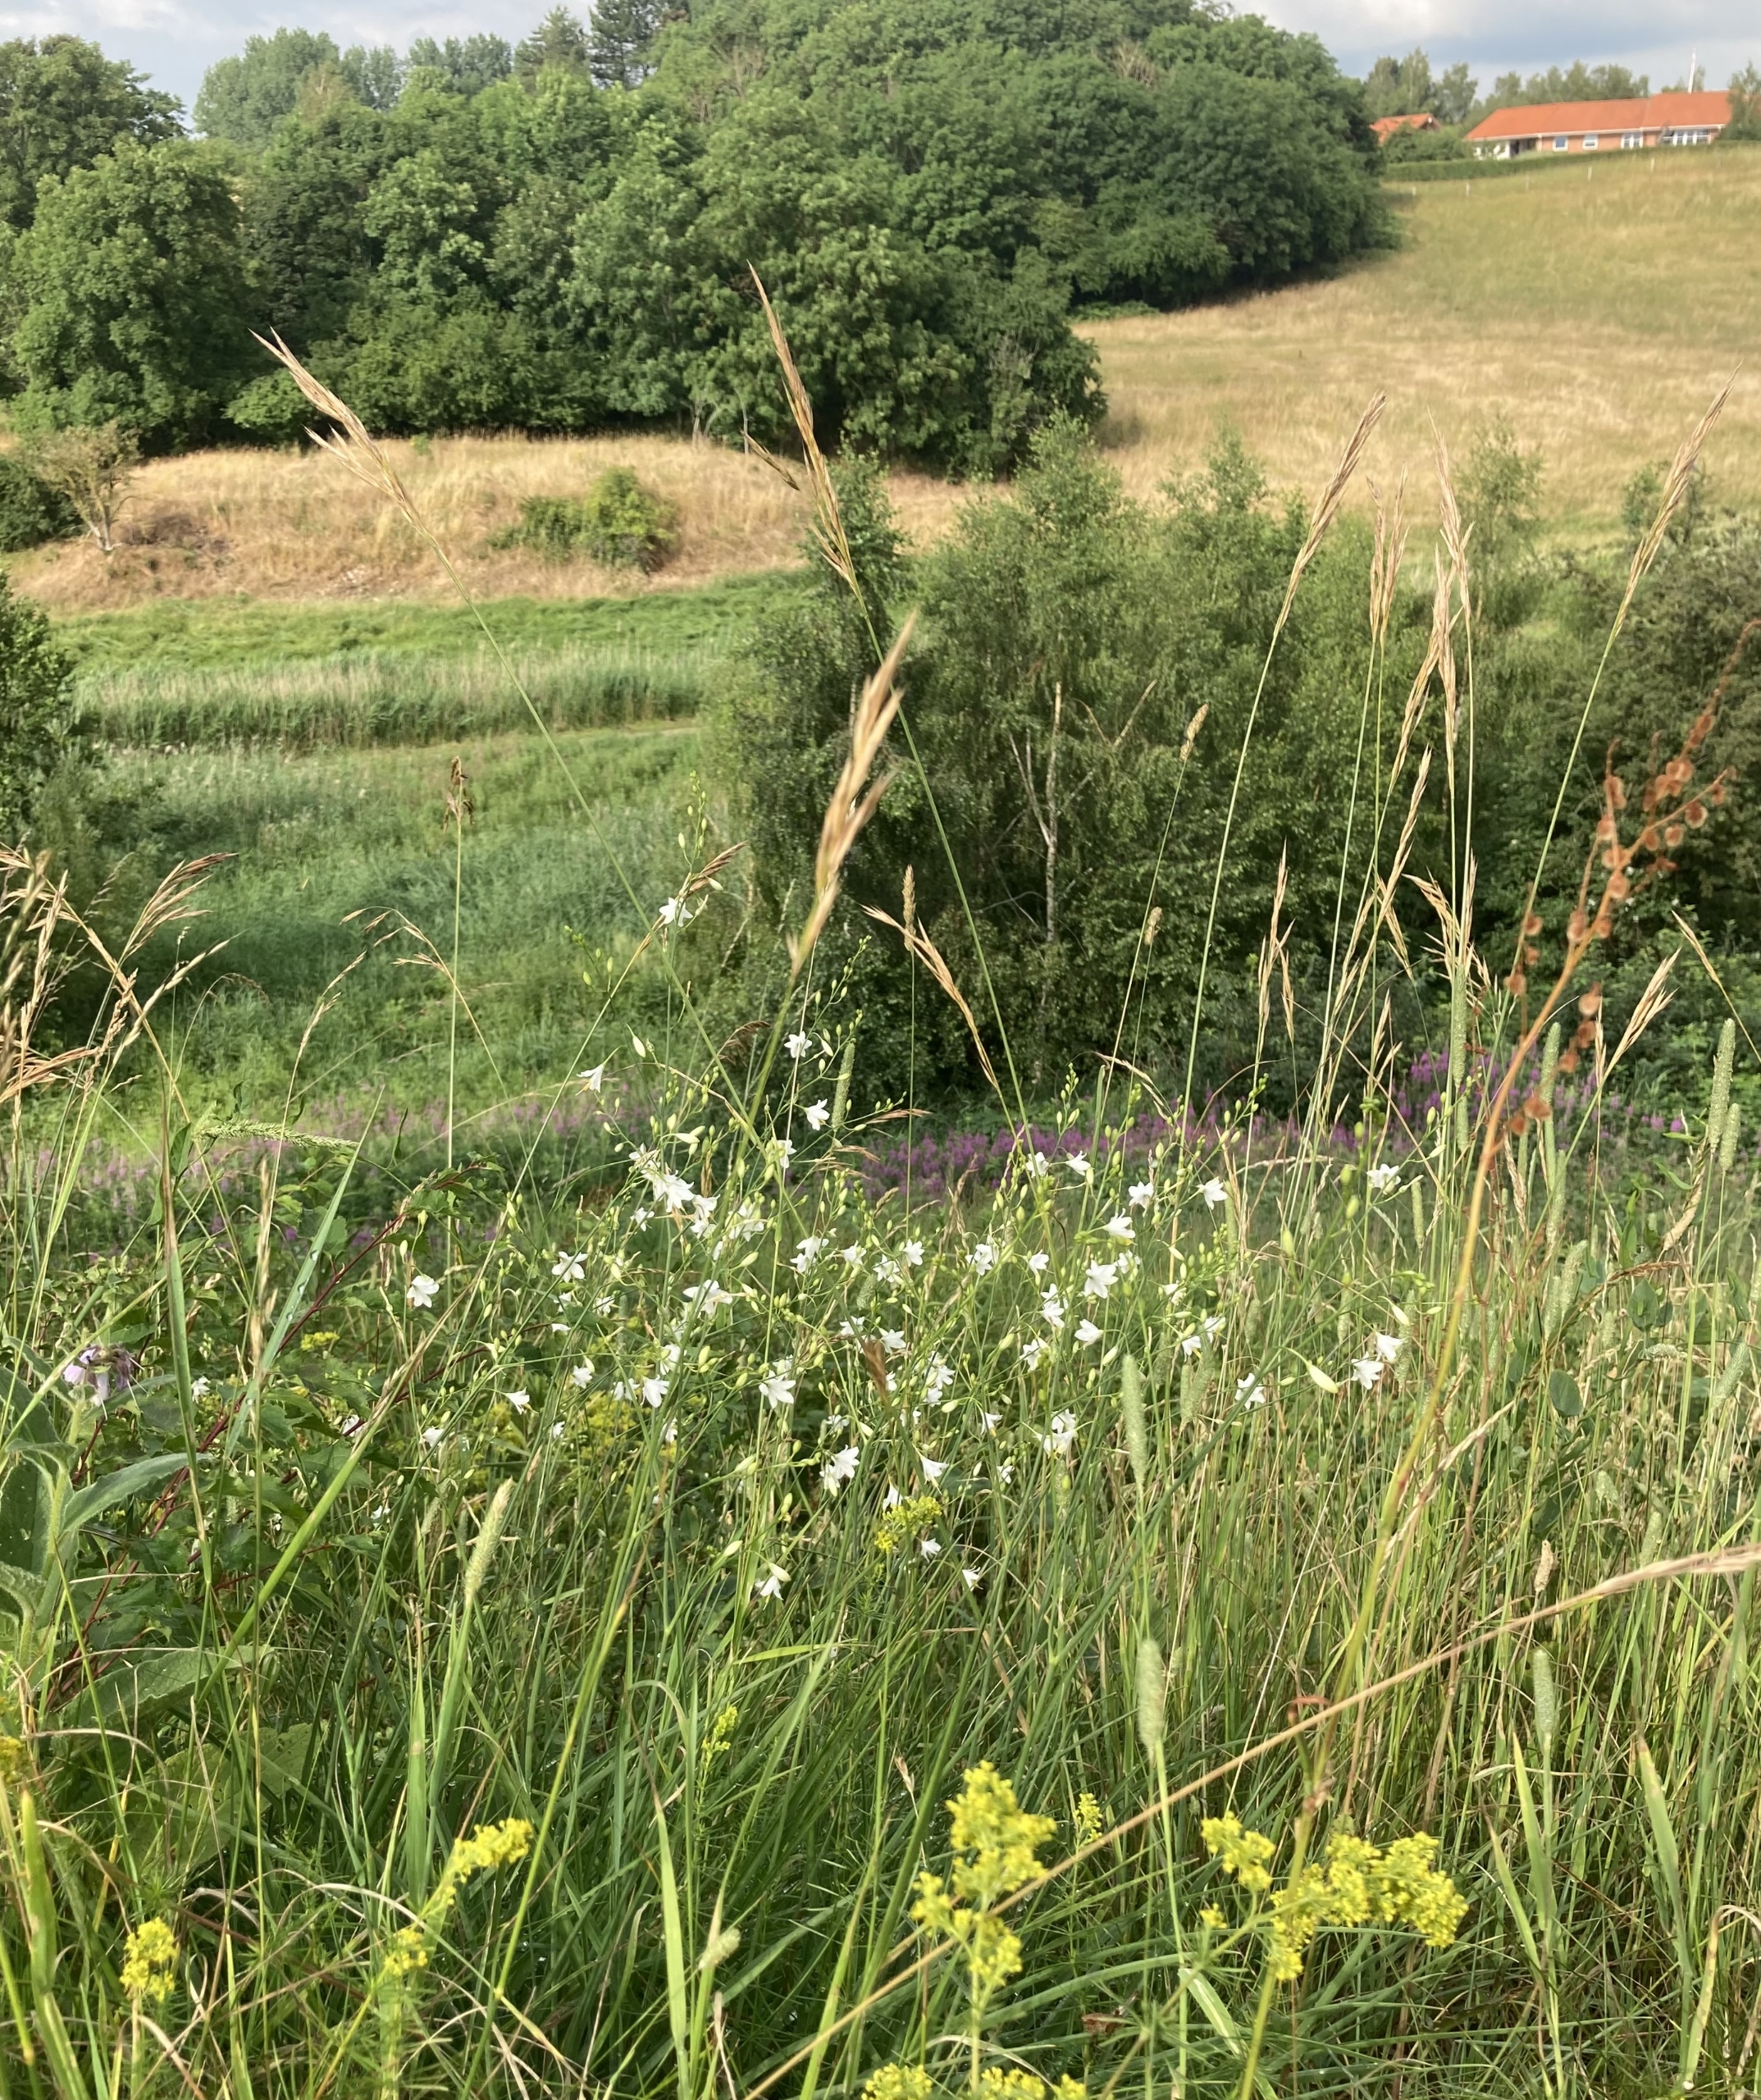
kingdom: Plantae
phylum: Tracheophyta
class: Liliopsida
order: Asparagales
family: Asparagaceae
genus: Anthericum
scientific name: Anthericum ramosum
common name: Grenet edderkopurt
